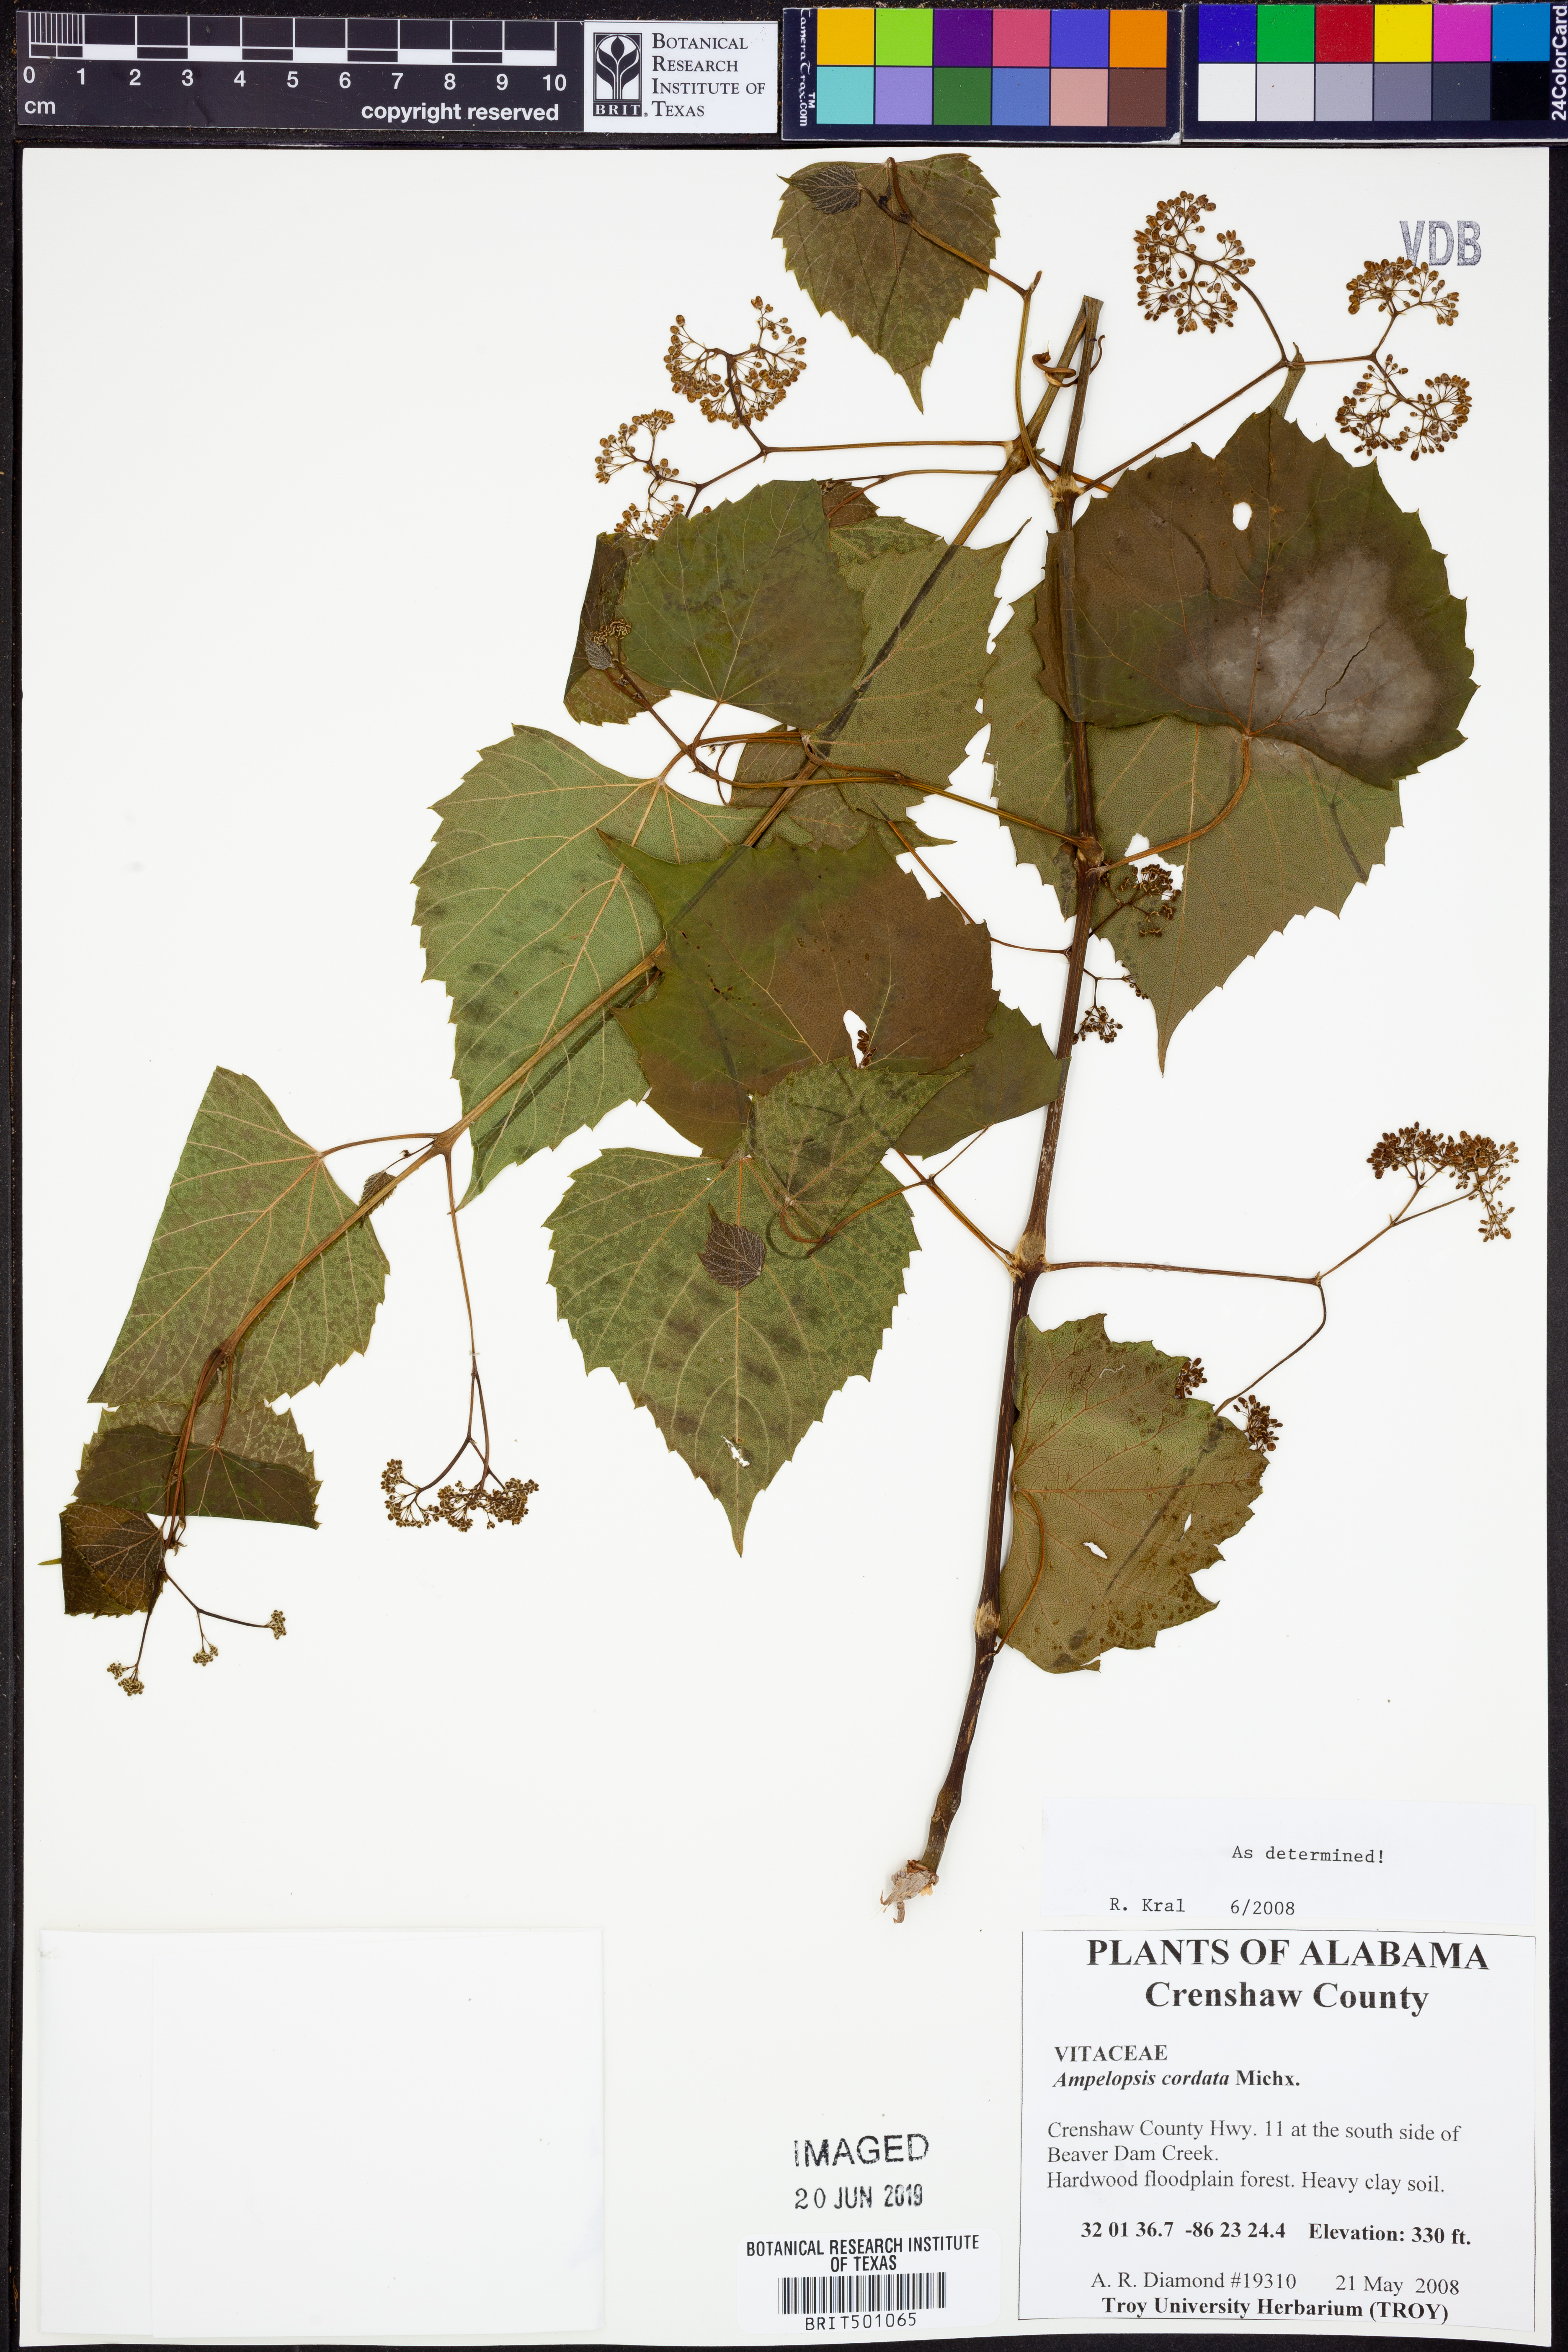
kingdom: Plantae
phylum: Tracheophyta
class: Magnoliopsida
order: Vitales
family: Vitaceae
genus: Ampelopsis
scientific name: Ampelopsis cordata
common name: Heart-leaf ampelopsis
